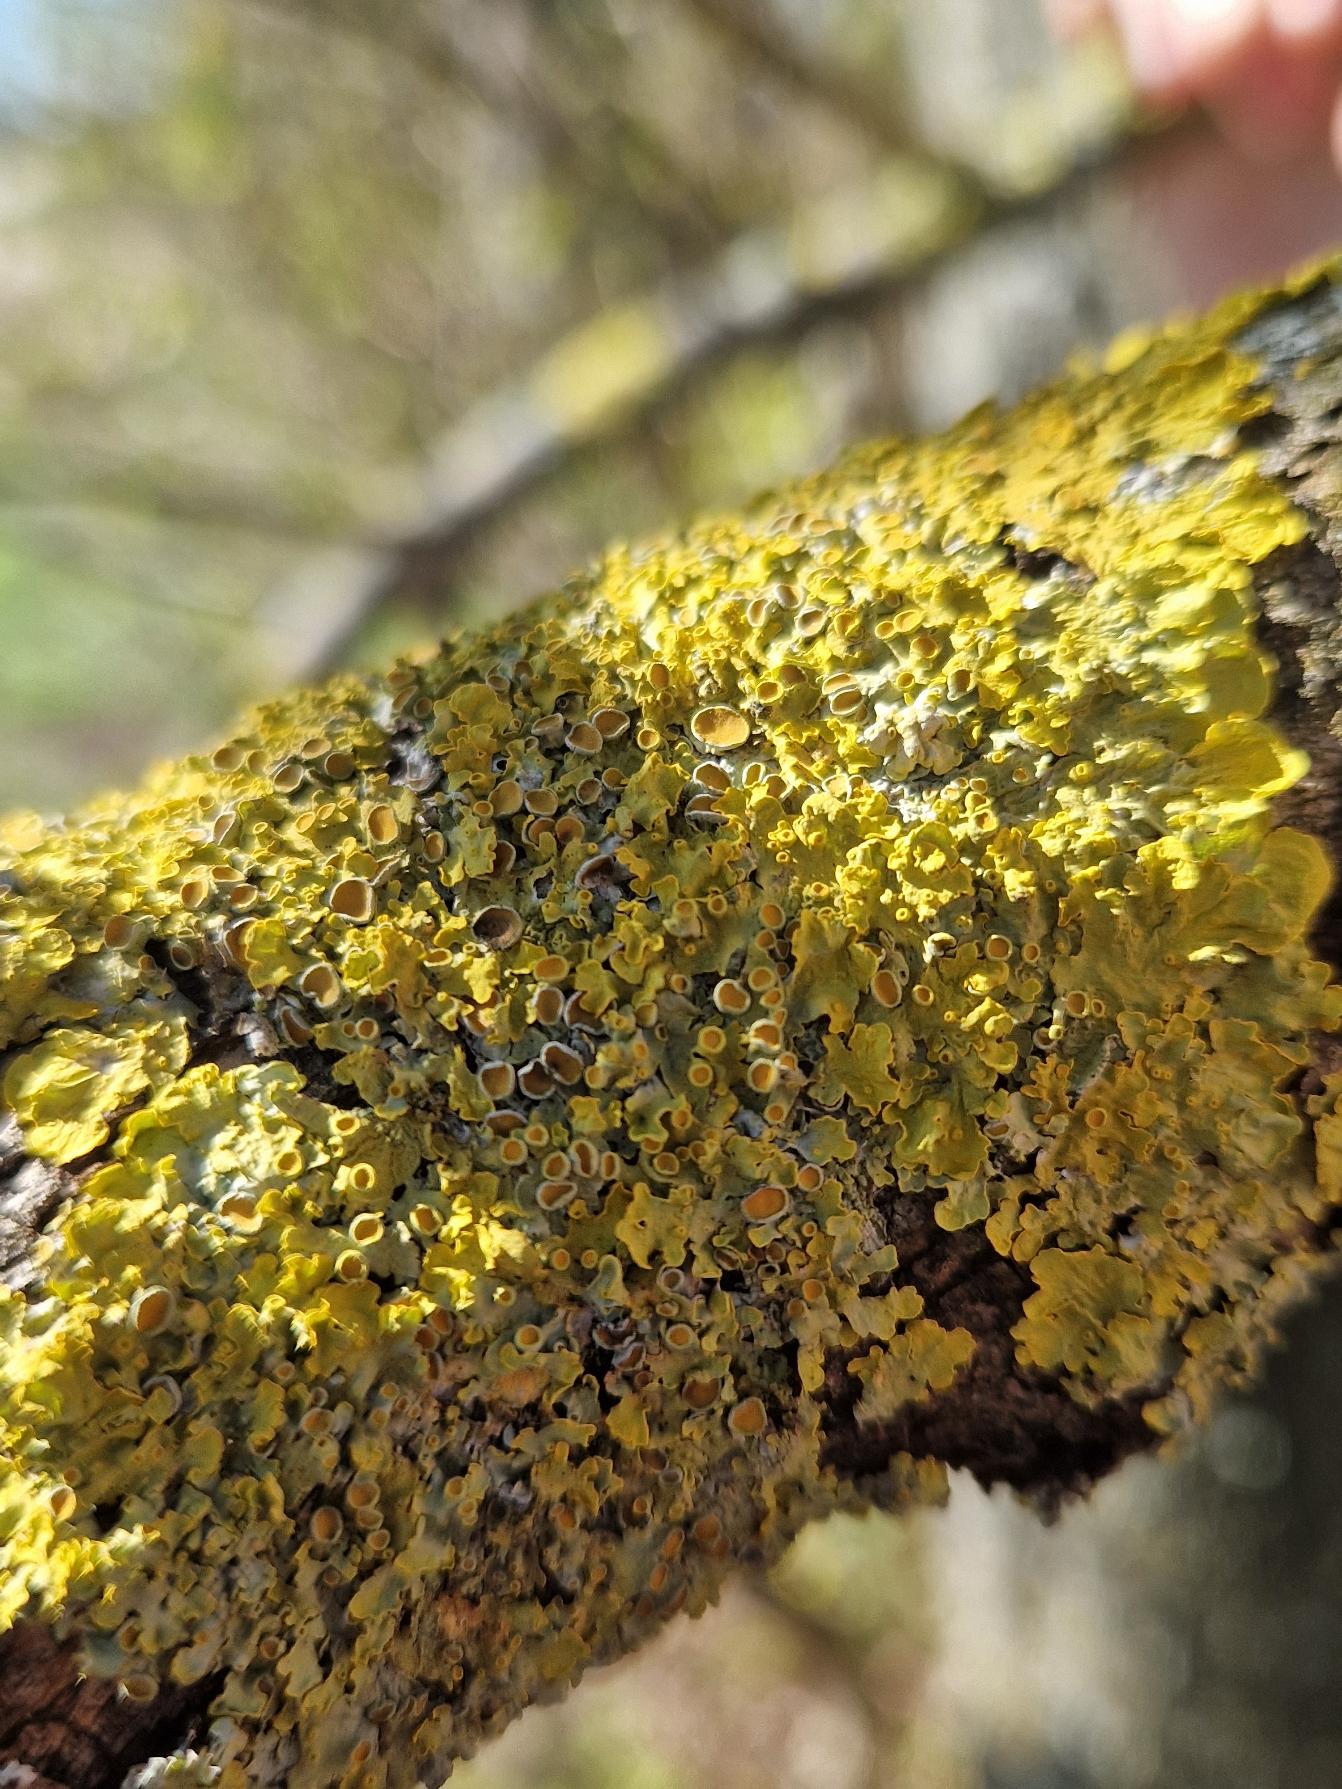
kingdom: Fungi
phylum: Ascomycota
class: Lecanoromycetes
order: Teloschistales
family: Teloschistaceae
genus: Xanthoria
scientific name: Xanthoria parietina
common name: Almindelig væggelav
